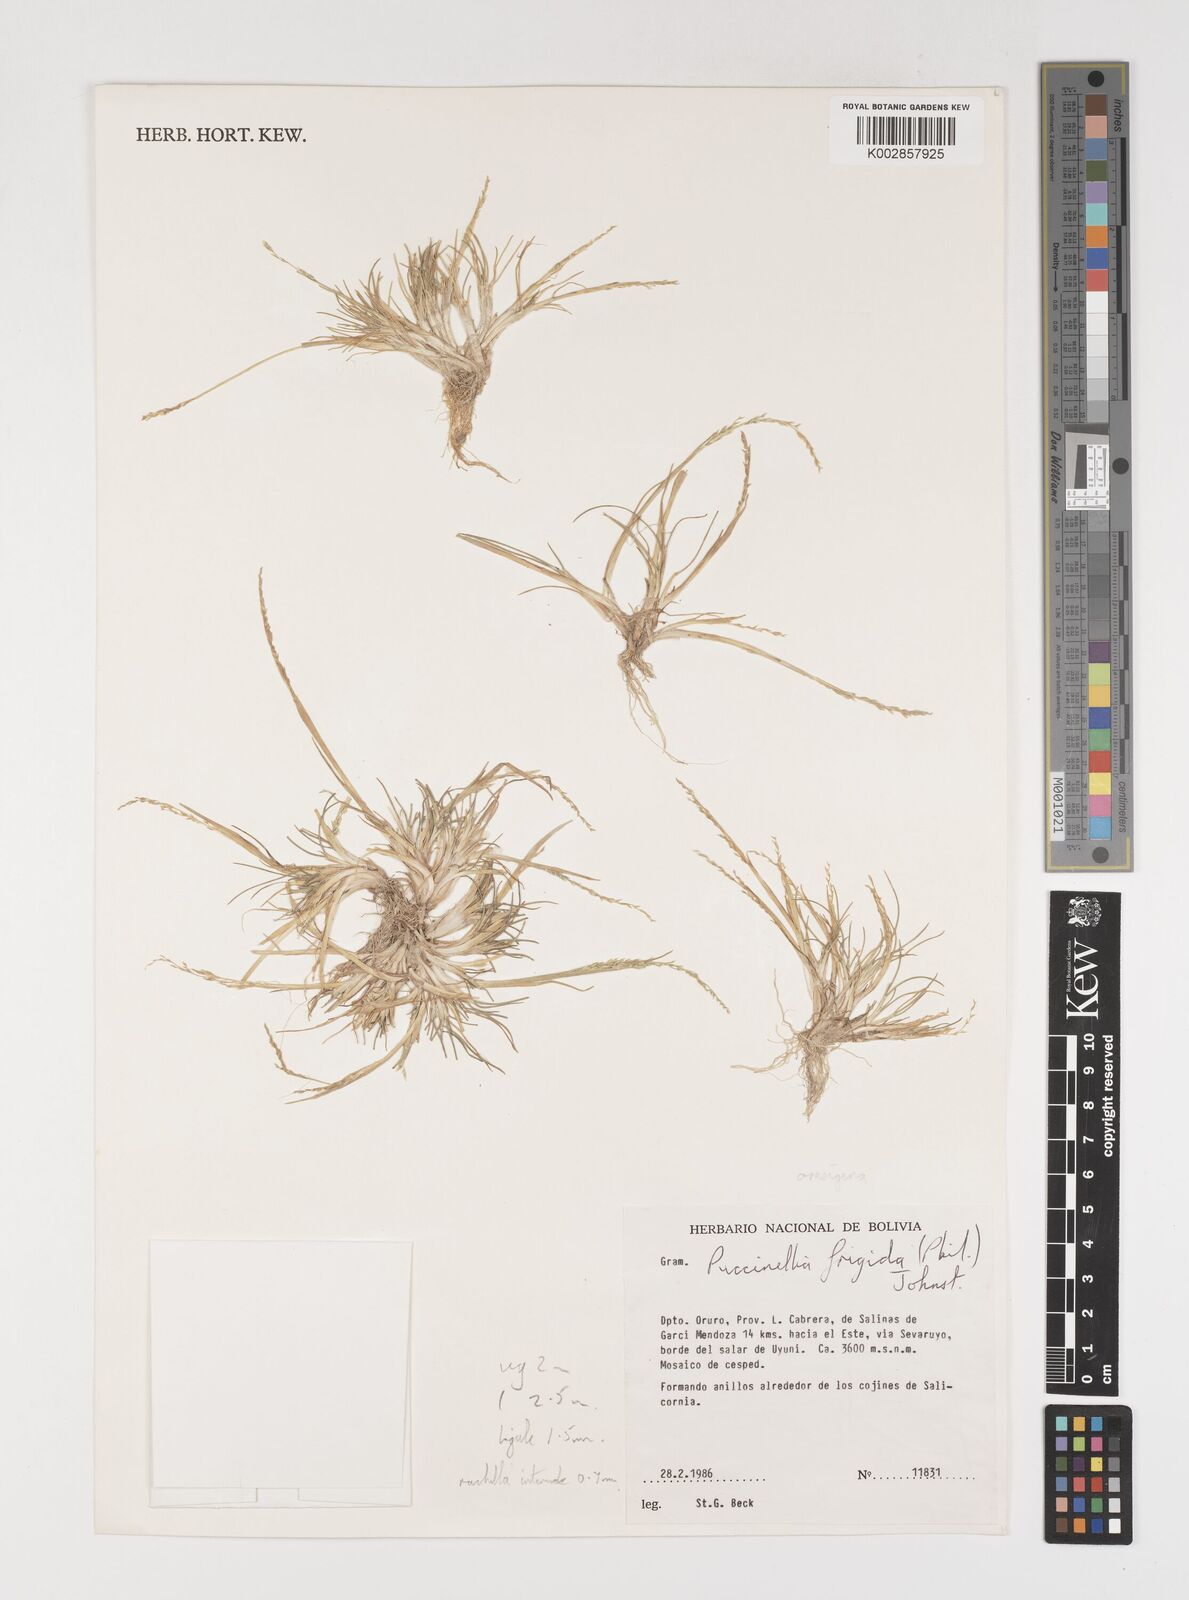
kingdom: Plantae
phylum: Tracheophyta
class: Liliopsida
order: Poales
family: Poaceae
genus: Puccinellia
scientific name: Puccinellia frigida
